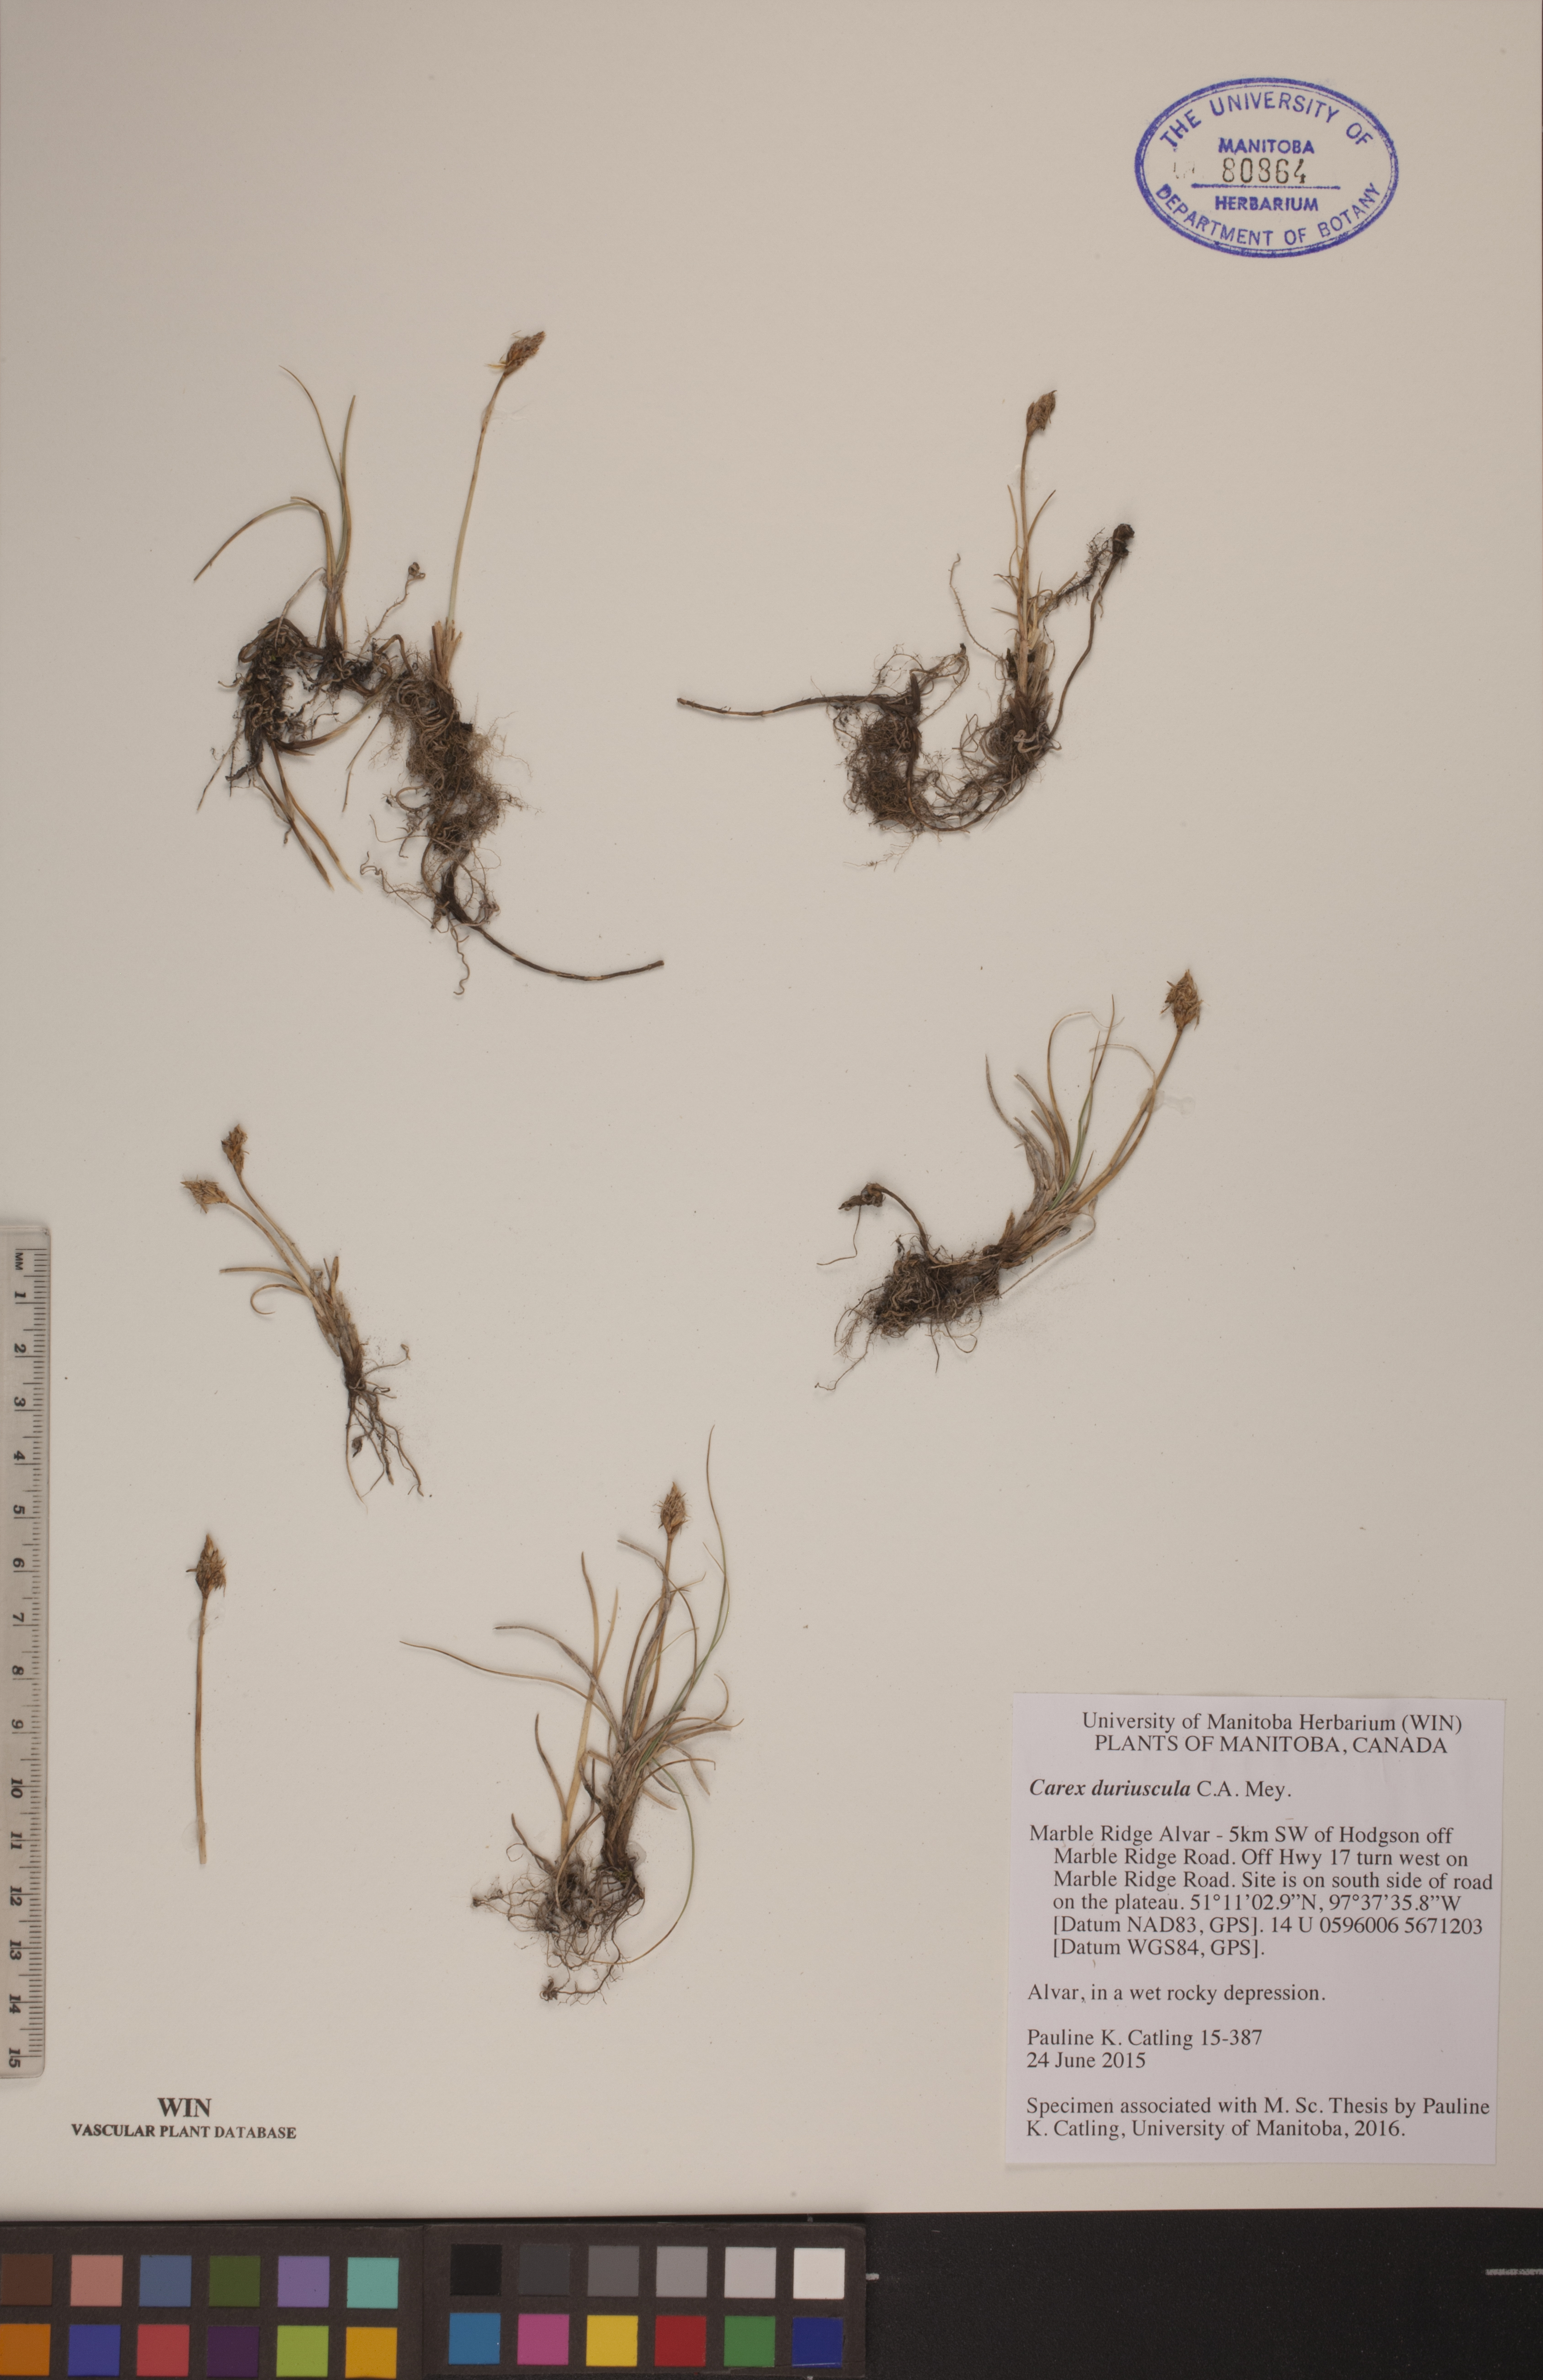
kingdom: Plantae
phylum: Tracheophyta
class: Liliopsida
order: Poales
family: Cyperaceae
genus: Carex
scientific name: Carex duriuscula
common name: Involute-leaved sedge
